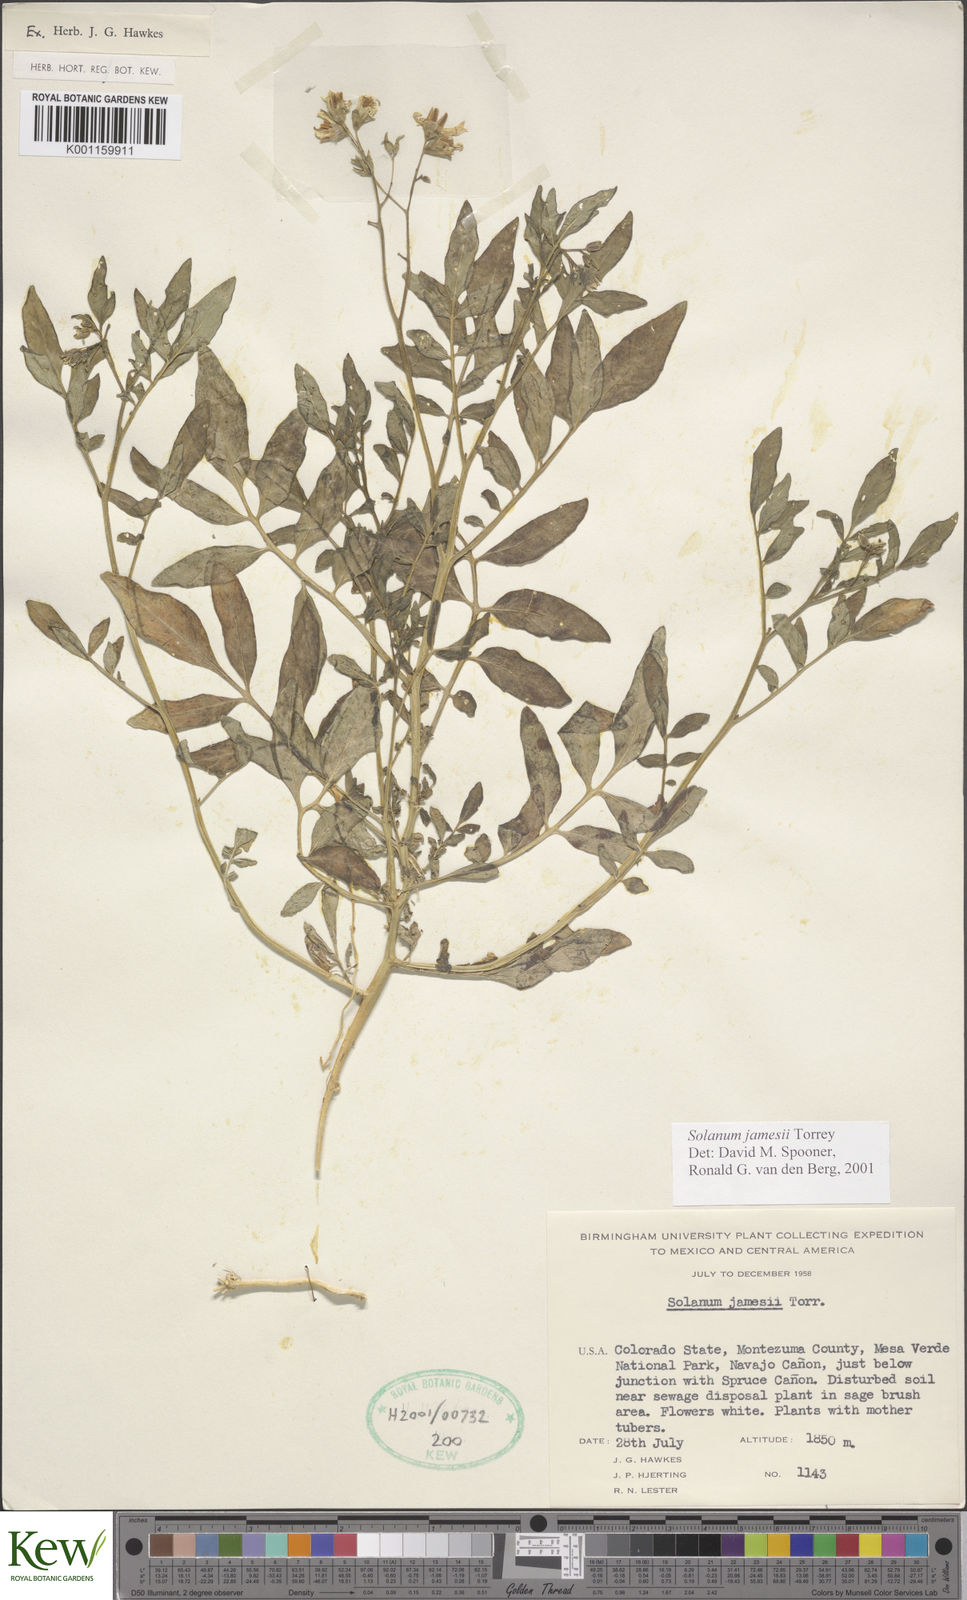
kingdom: Plantae
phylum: Tracheophyta
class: Magnoliopsida
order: Solanales
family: Solanaceae
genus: Solanum
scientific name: Solanum jamesii
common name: Wild potato
